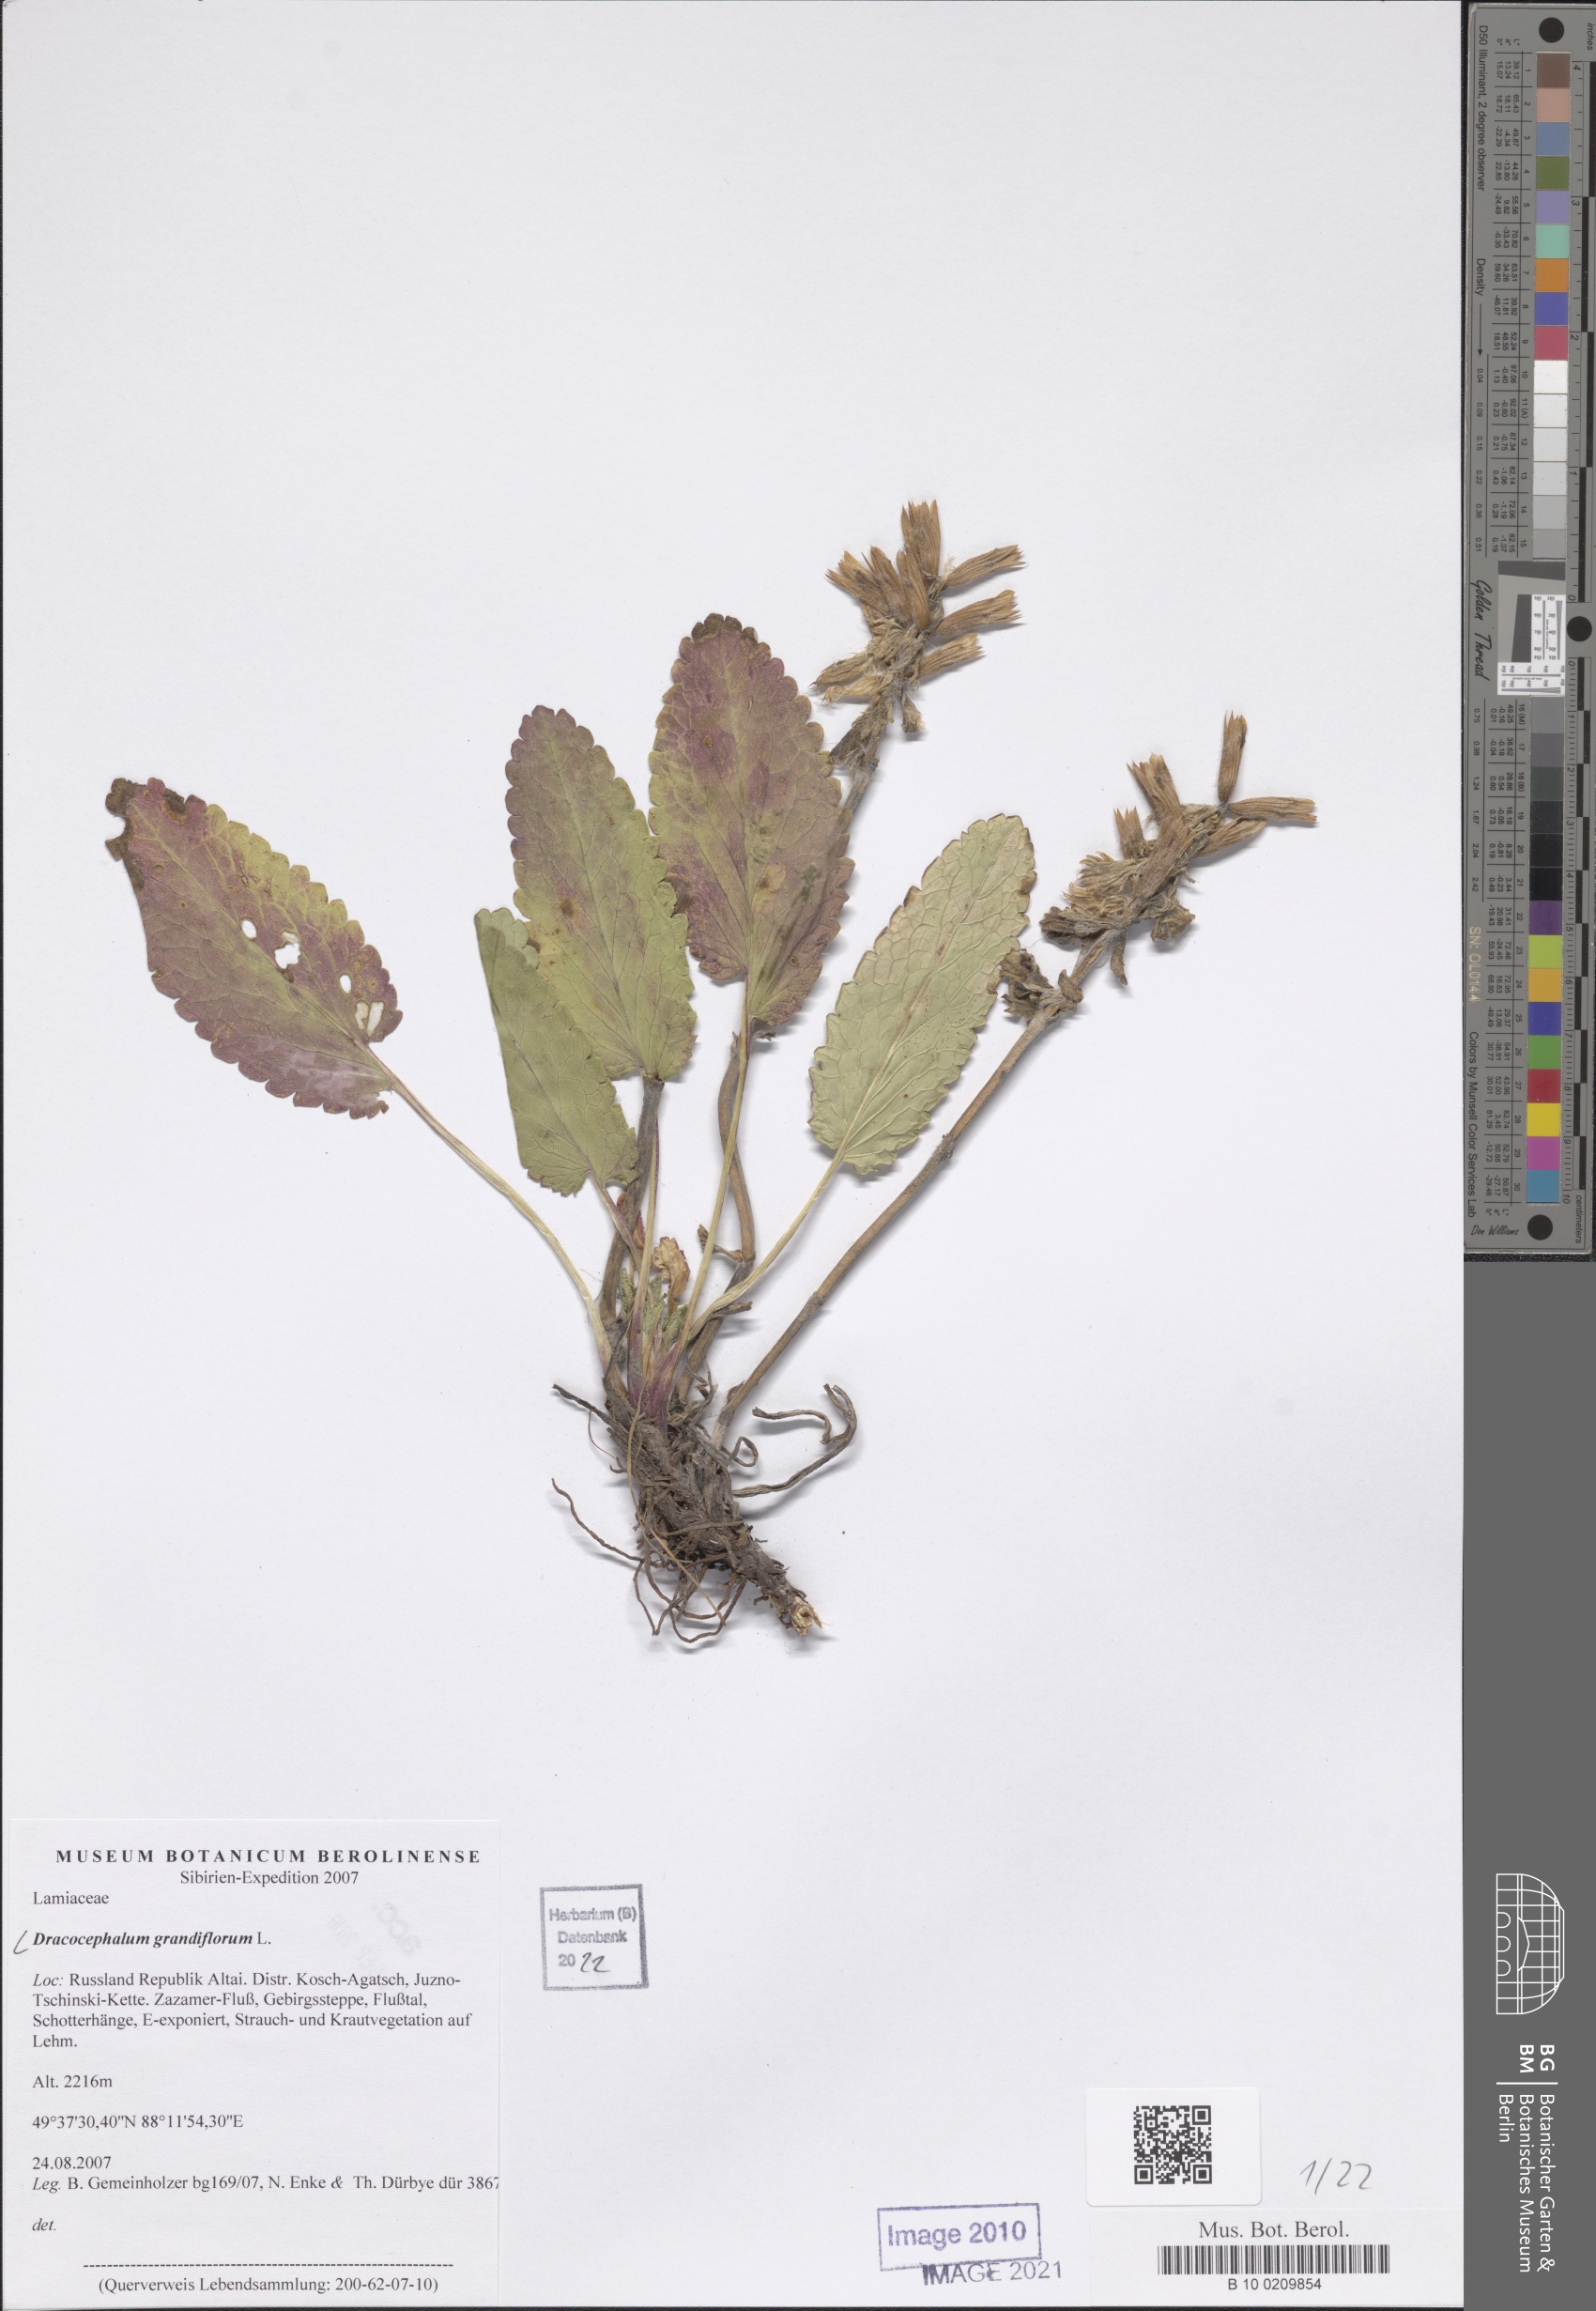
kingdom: Plantae
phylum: Tracheophyta
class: Magnoliopsida
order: Lamiales
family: Lamiaceae
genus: Dracocephalum
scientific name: Dracocephalum grandiflorum
